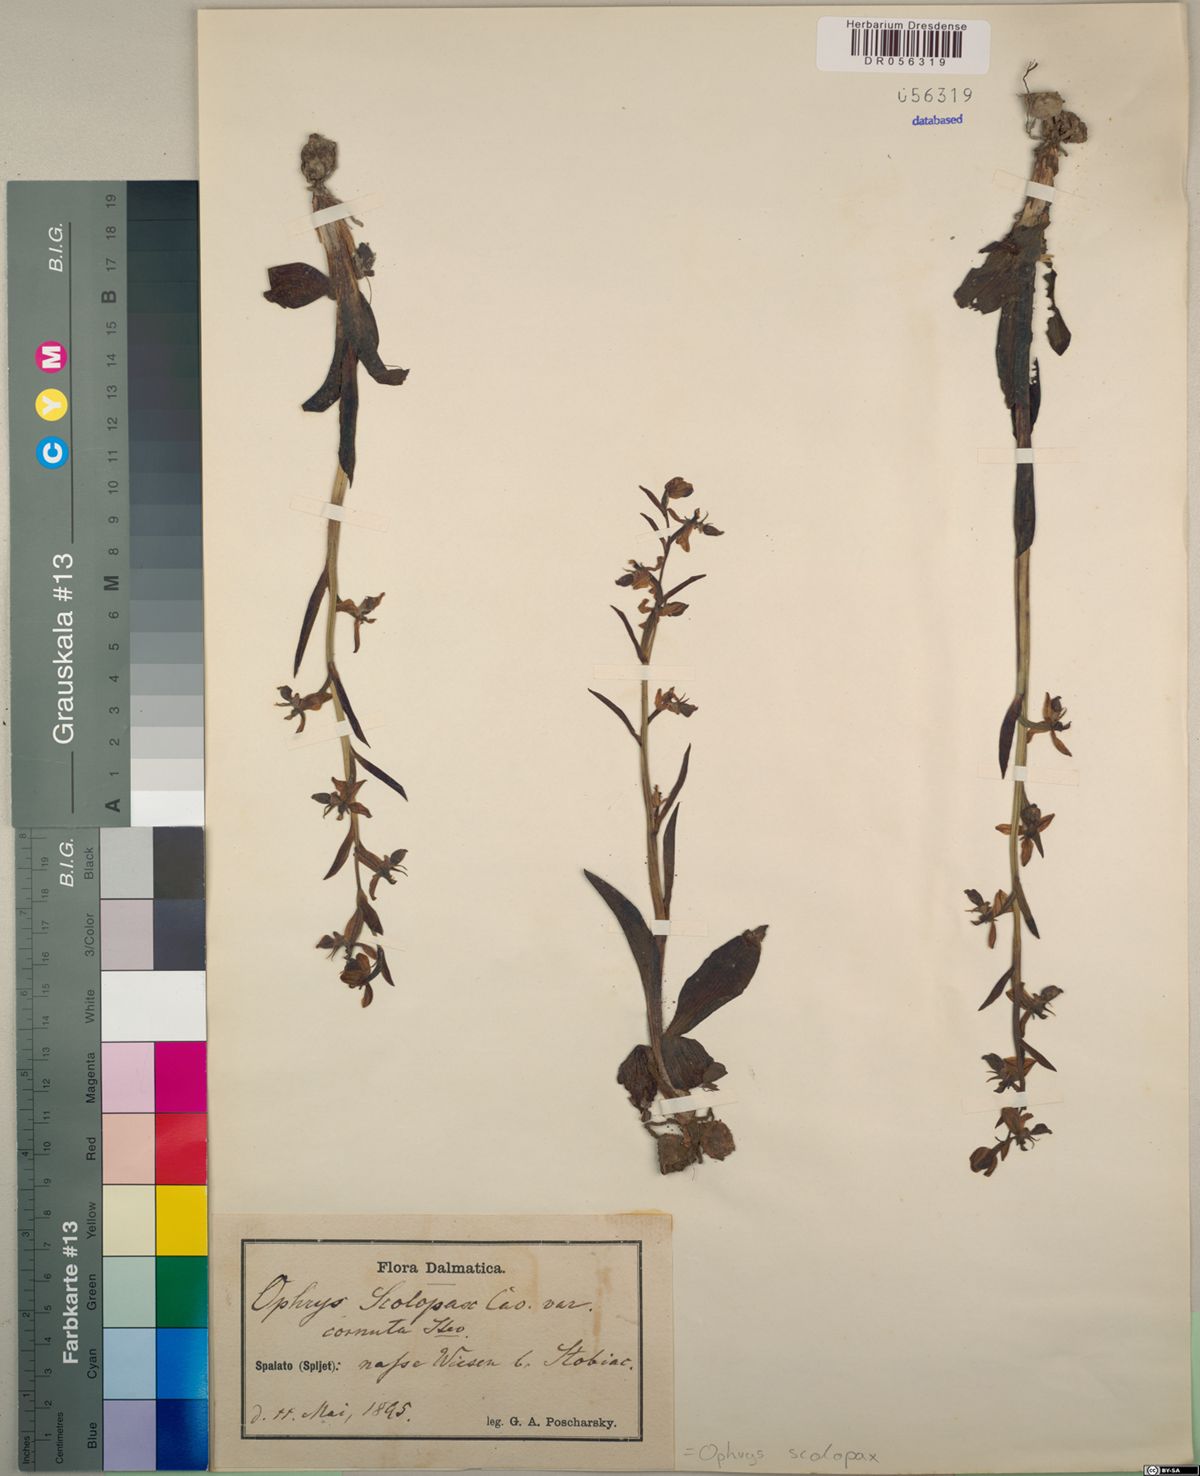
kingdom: Plantae
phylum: Tracheophyta
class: Liliopsida
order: Asparagales
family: Orchidaceae
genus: Ophrys
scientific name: Ophrys scolopax
